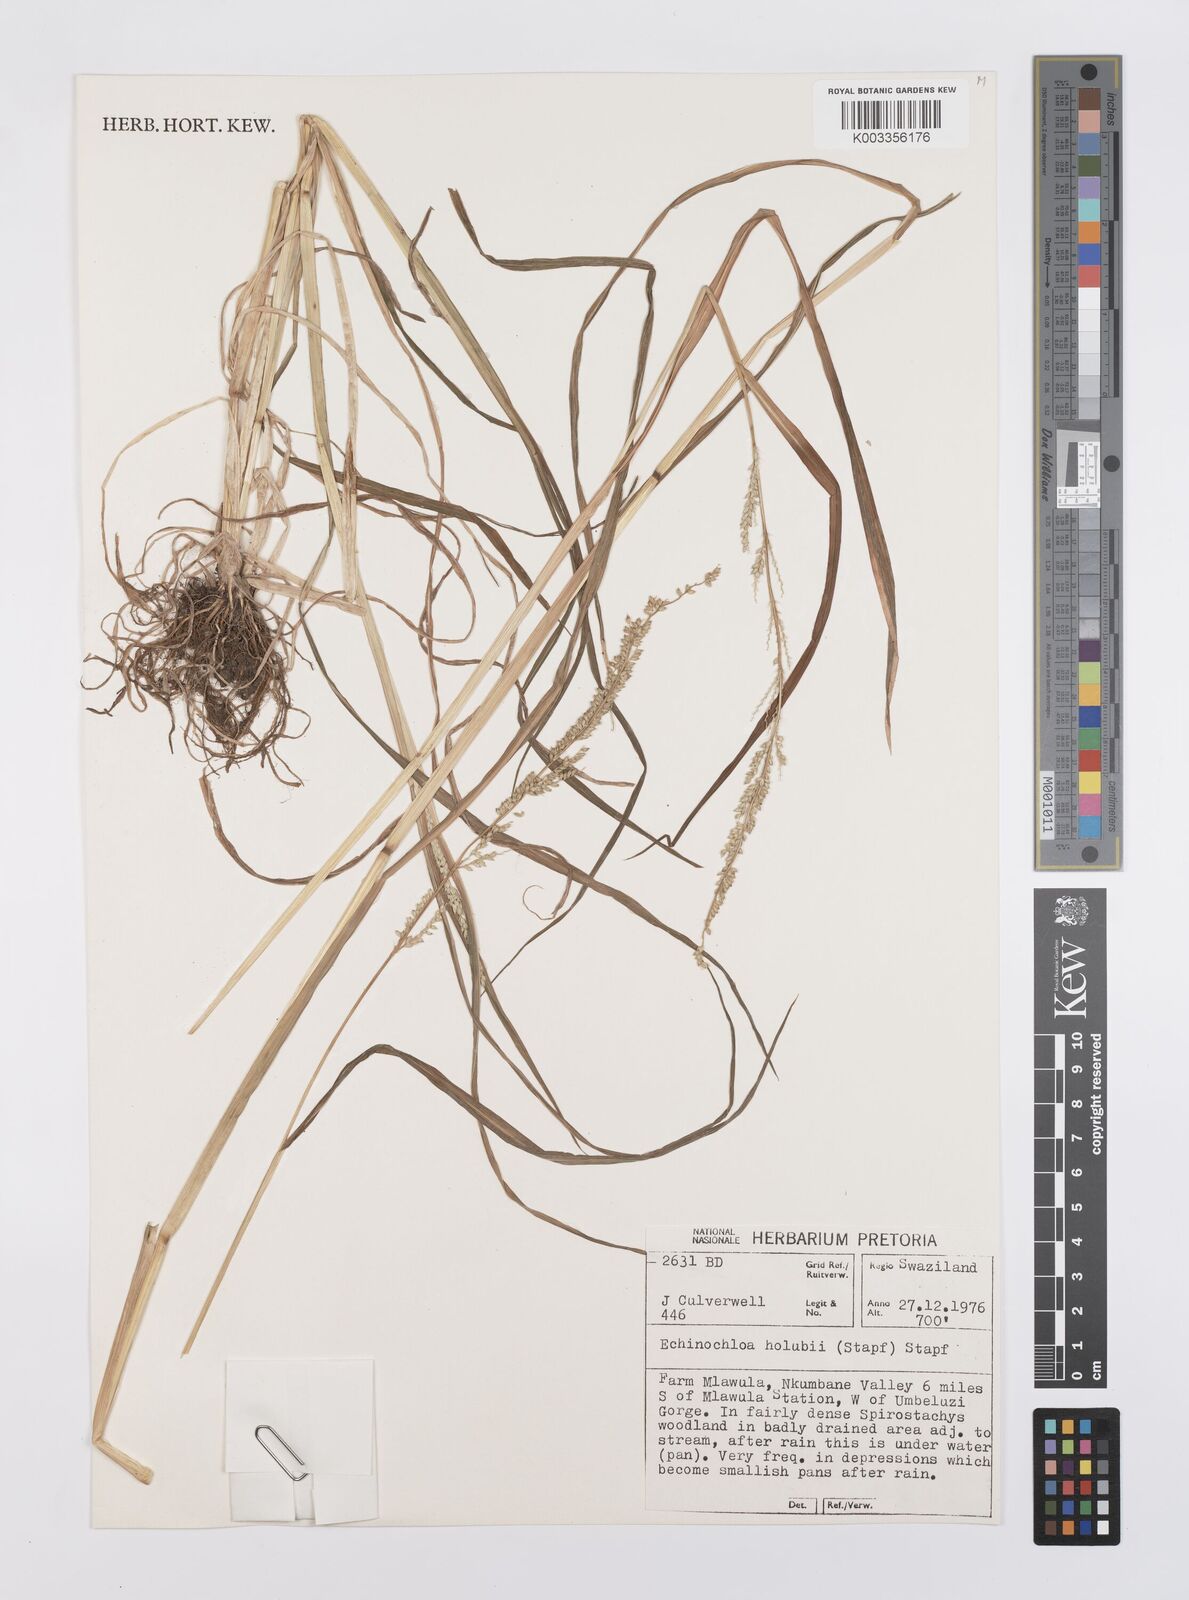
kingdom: Plantae
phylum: Tracheophyta
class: Liliopsida
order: Poales
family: Poaceae
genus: Echinochloa
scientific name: Echinochloa ugandensis
